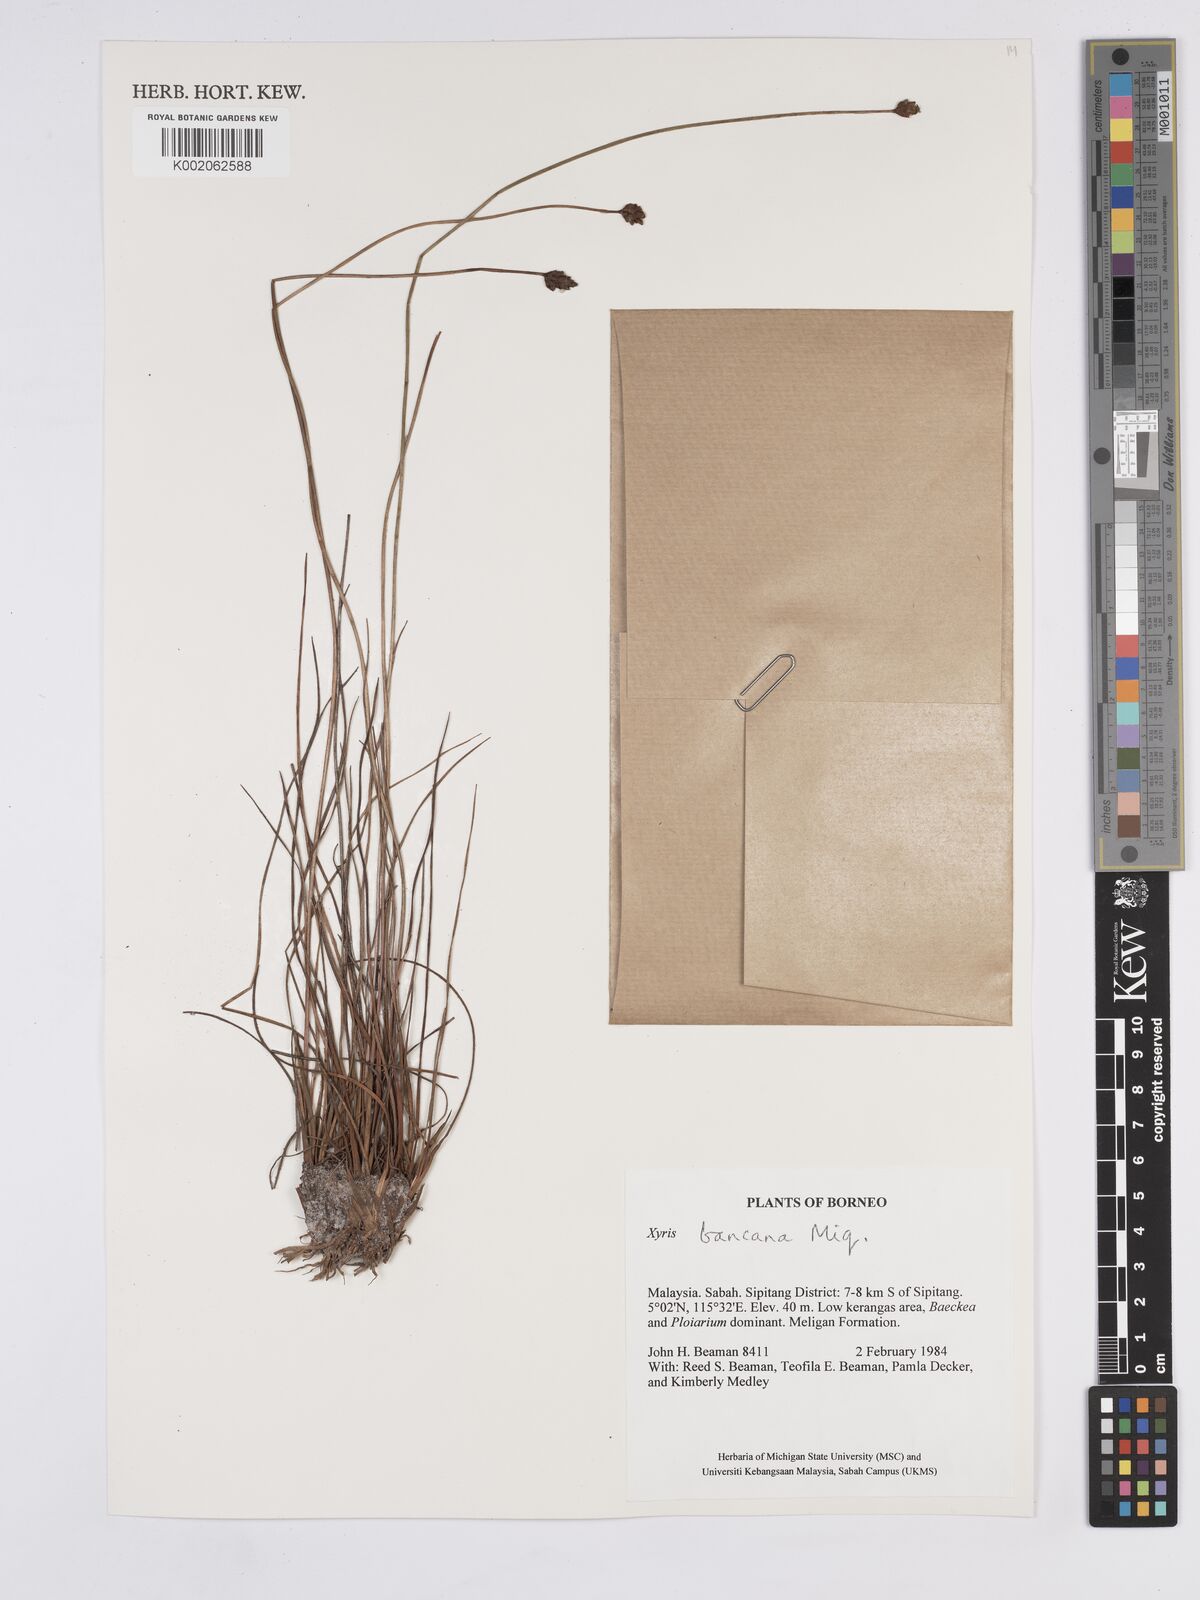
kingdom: Plantae
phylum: Tracheophyta
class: Liliopsida
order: Poales
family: Xyridaceae
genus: Xyris
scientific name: Xyris bancana
